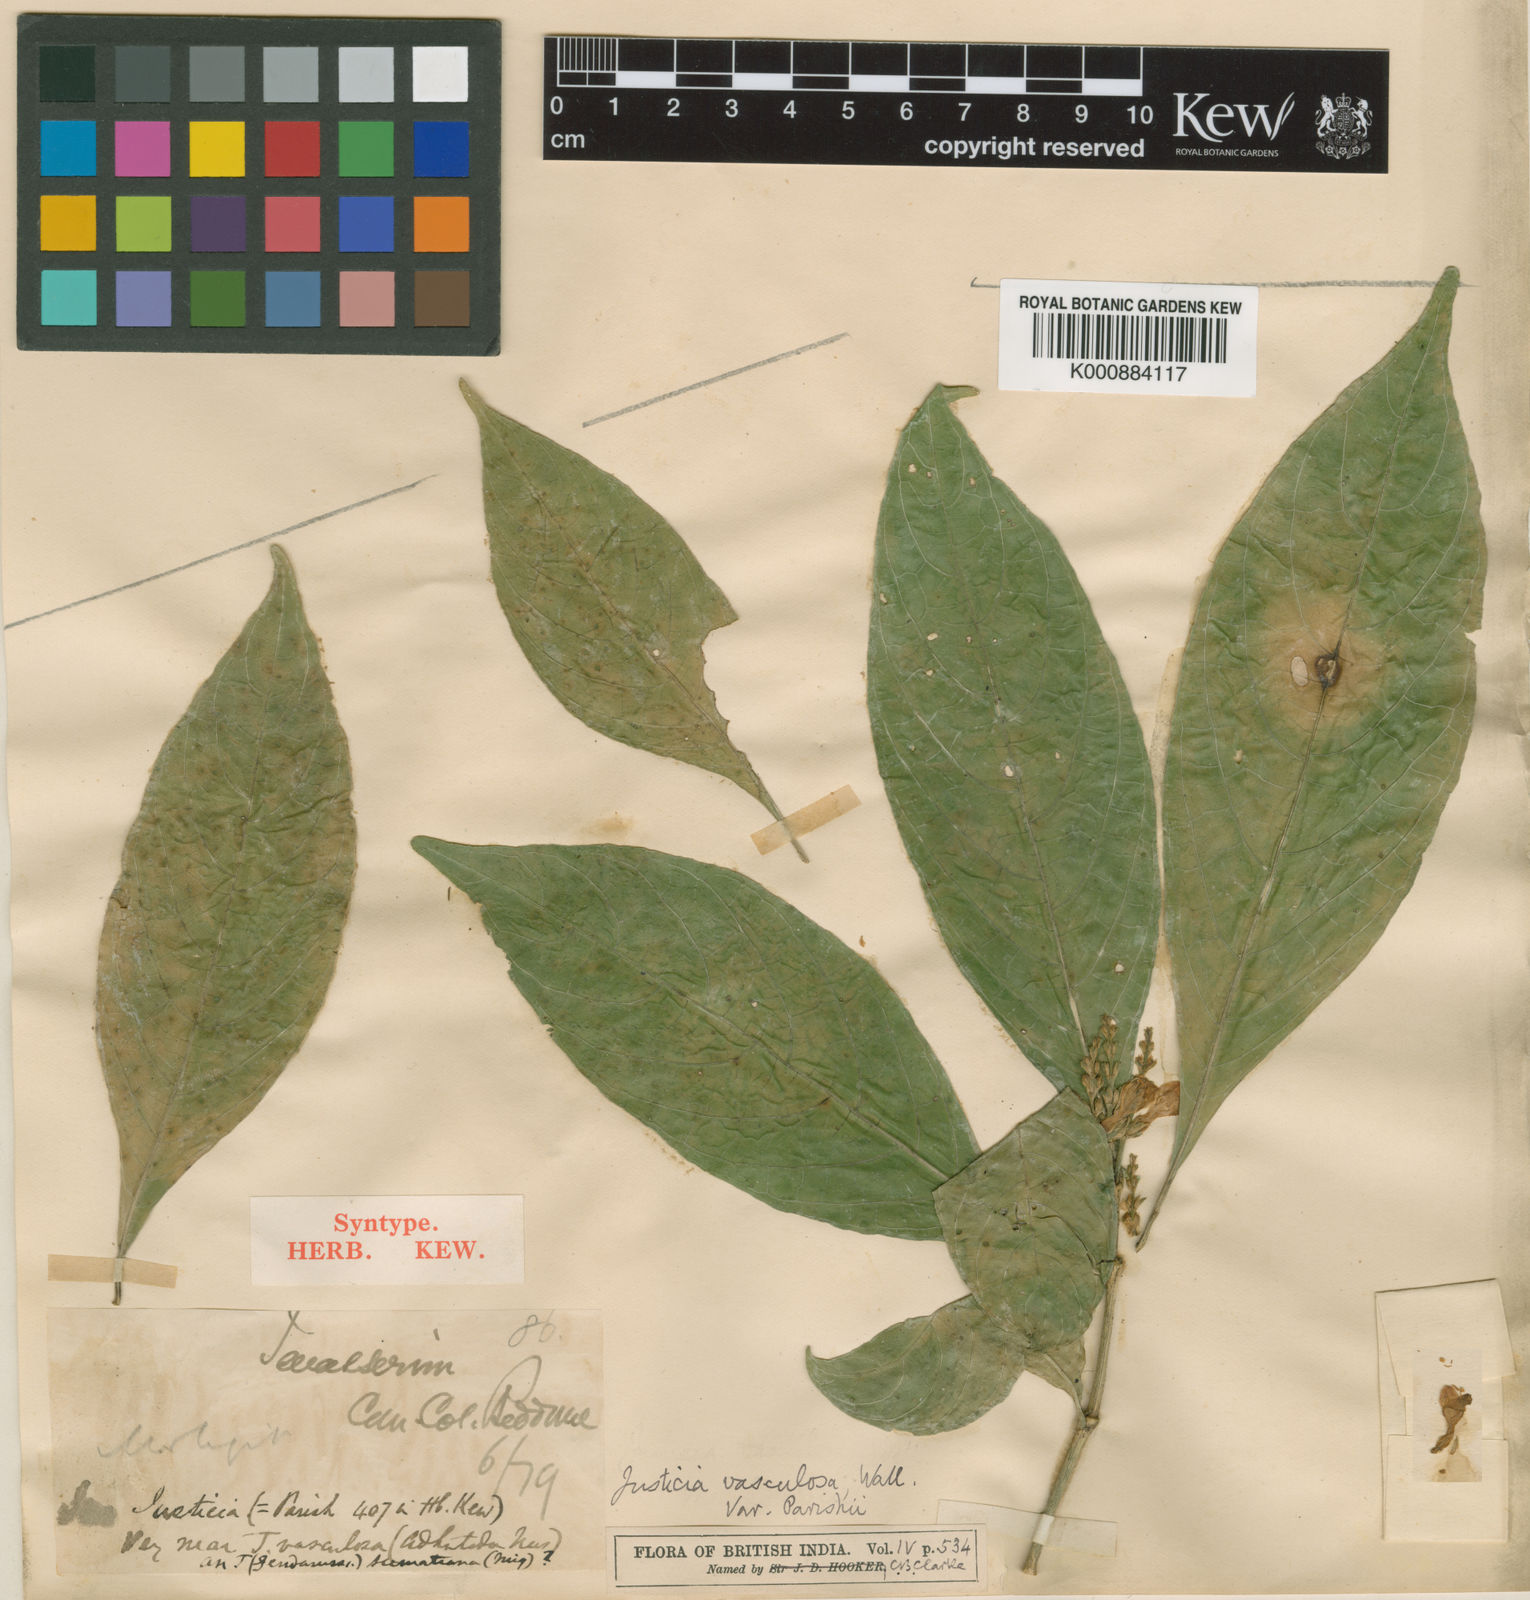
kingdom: Plantae
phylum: Tracheophyta
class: Magnoliopsida
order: Lamiales
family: Acanthaceae
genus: Justicia
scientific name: Justicia
